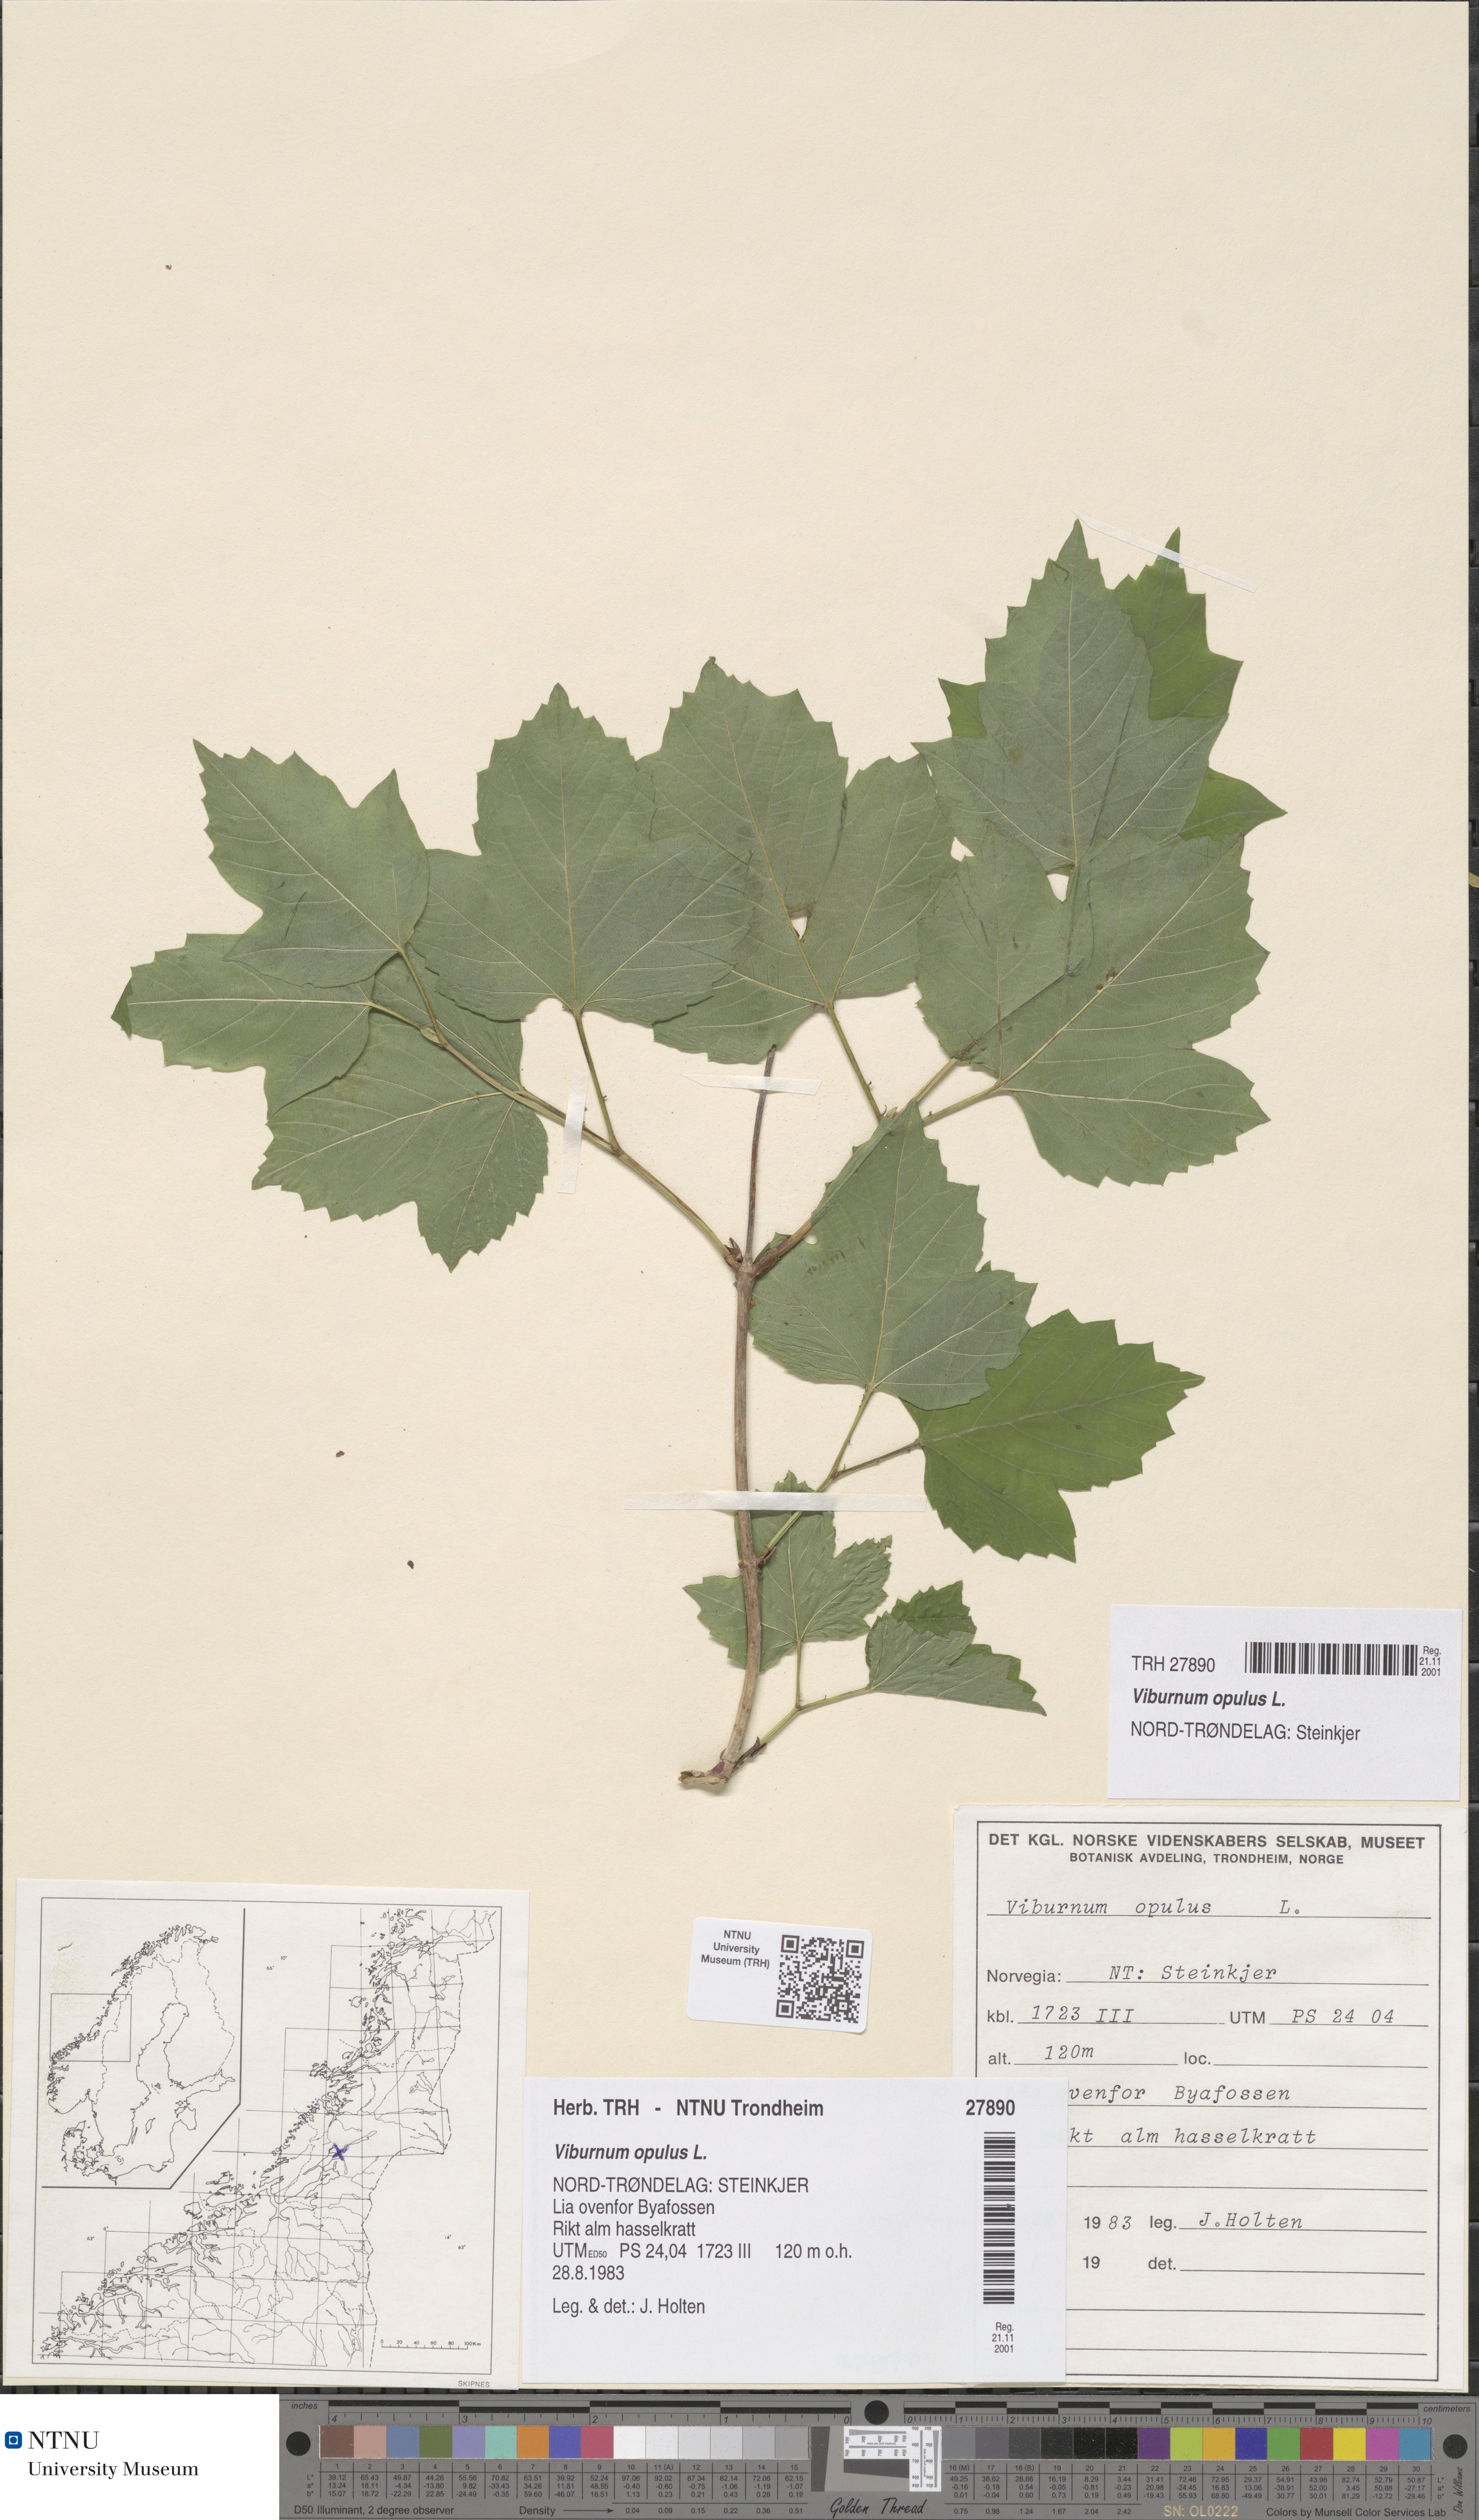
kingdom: Plantae
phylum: Tracheophyta
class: Magnoliopsida
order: Dipsacales
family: Viburnaceae
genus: Viburnum
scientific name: Viburnum opulus
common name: Guelder-rose
